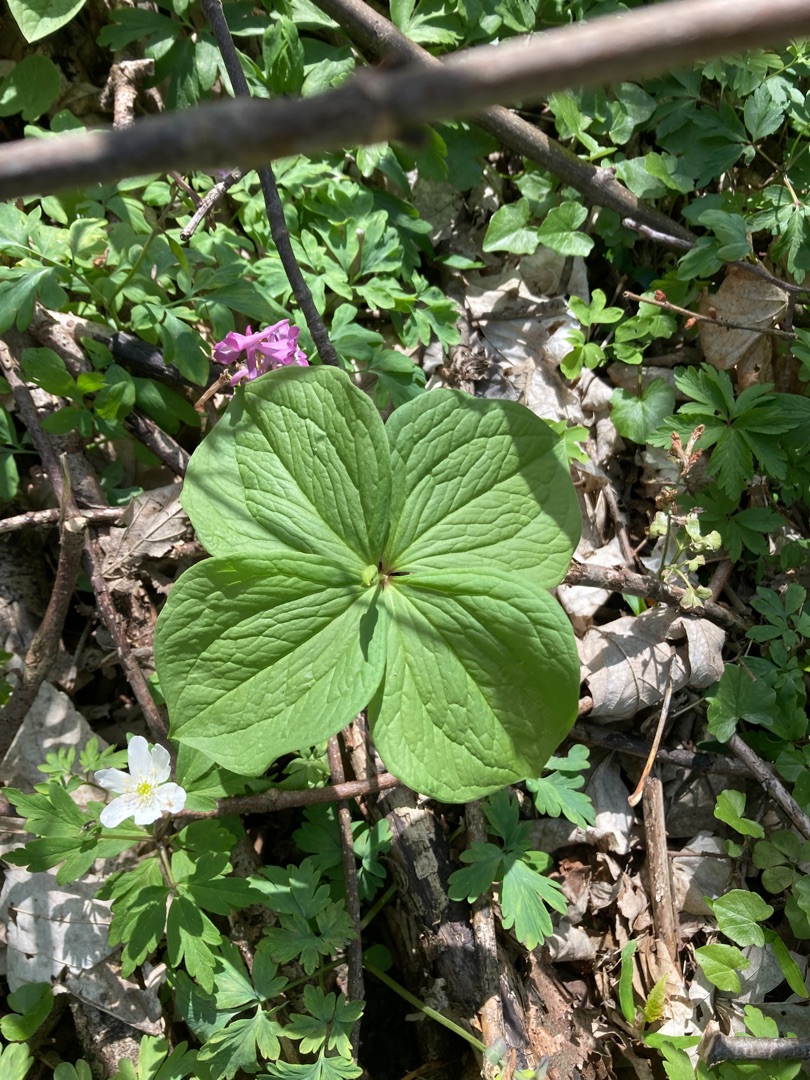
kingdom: Plantae
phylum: Tracheophyta
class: Liliopsida
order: Liliales
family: Melanthiaceae
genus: Paris
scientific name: Paris quadrifolia
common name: Firblad
